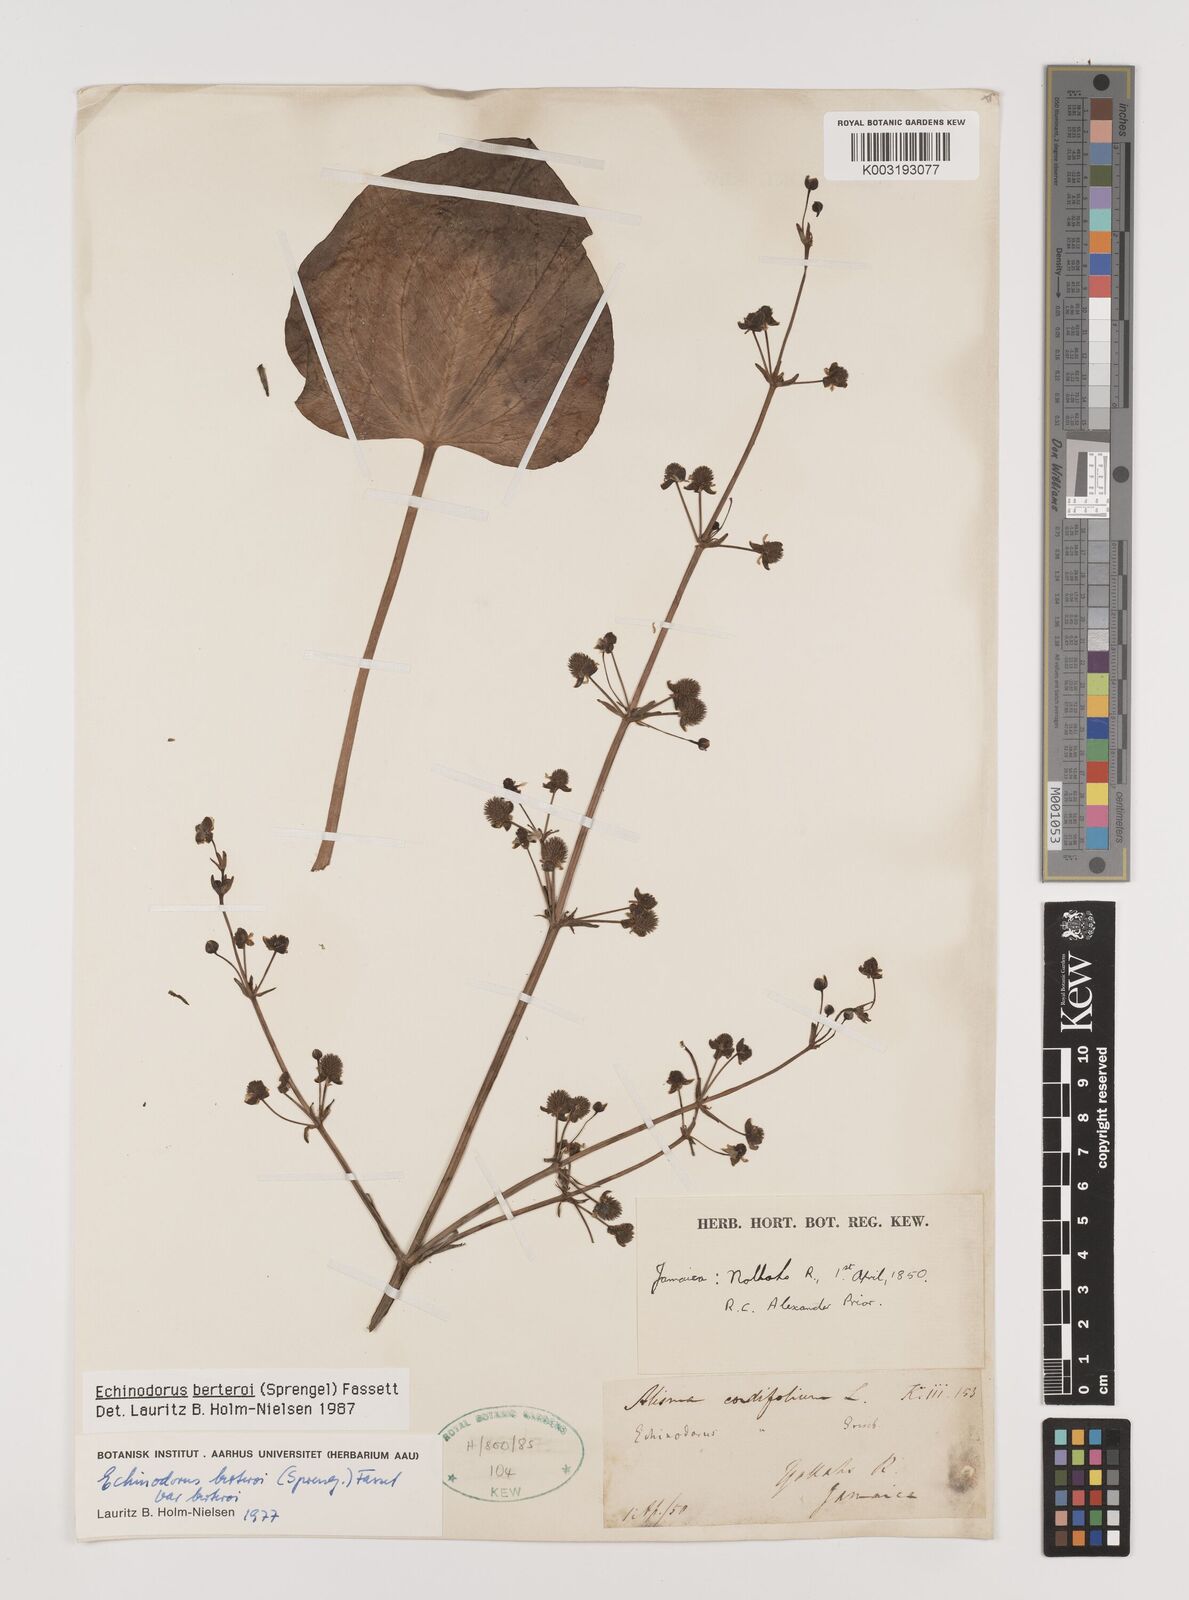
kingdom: Plantae
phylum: Tracheophyta
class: Liliopsida
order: Alismatales
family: Alismataceae
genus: Echinodorus
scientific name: Echinodorus berteroi
